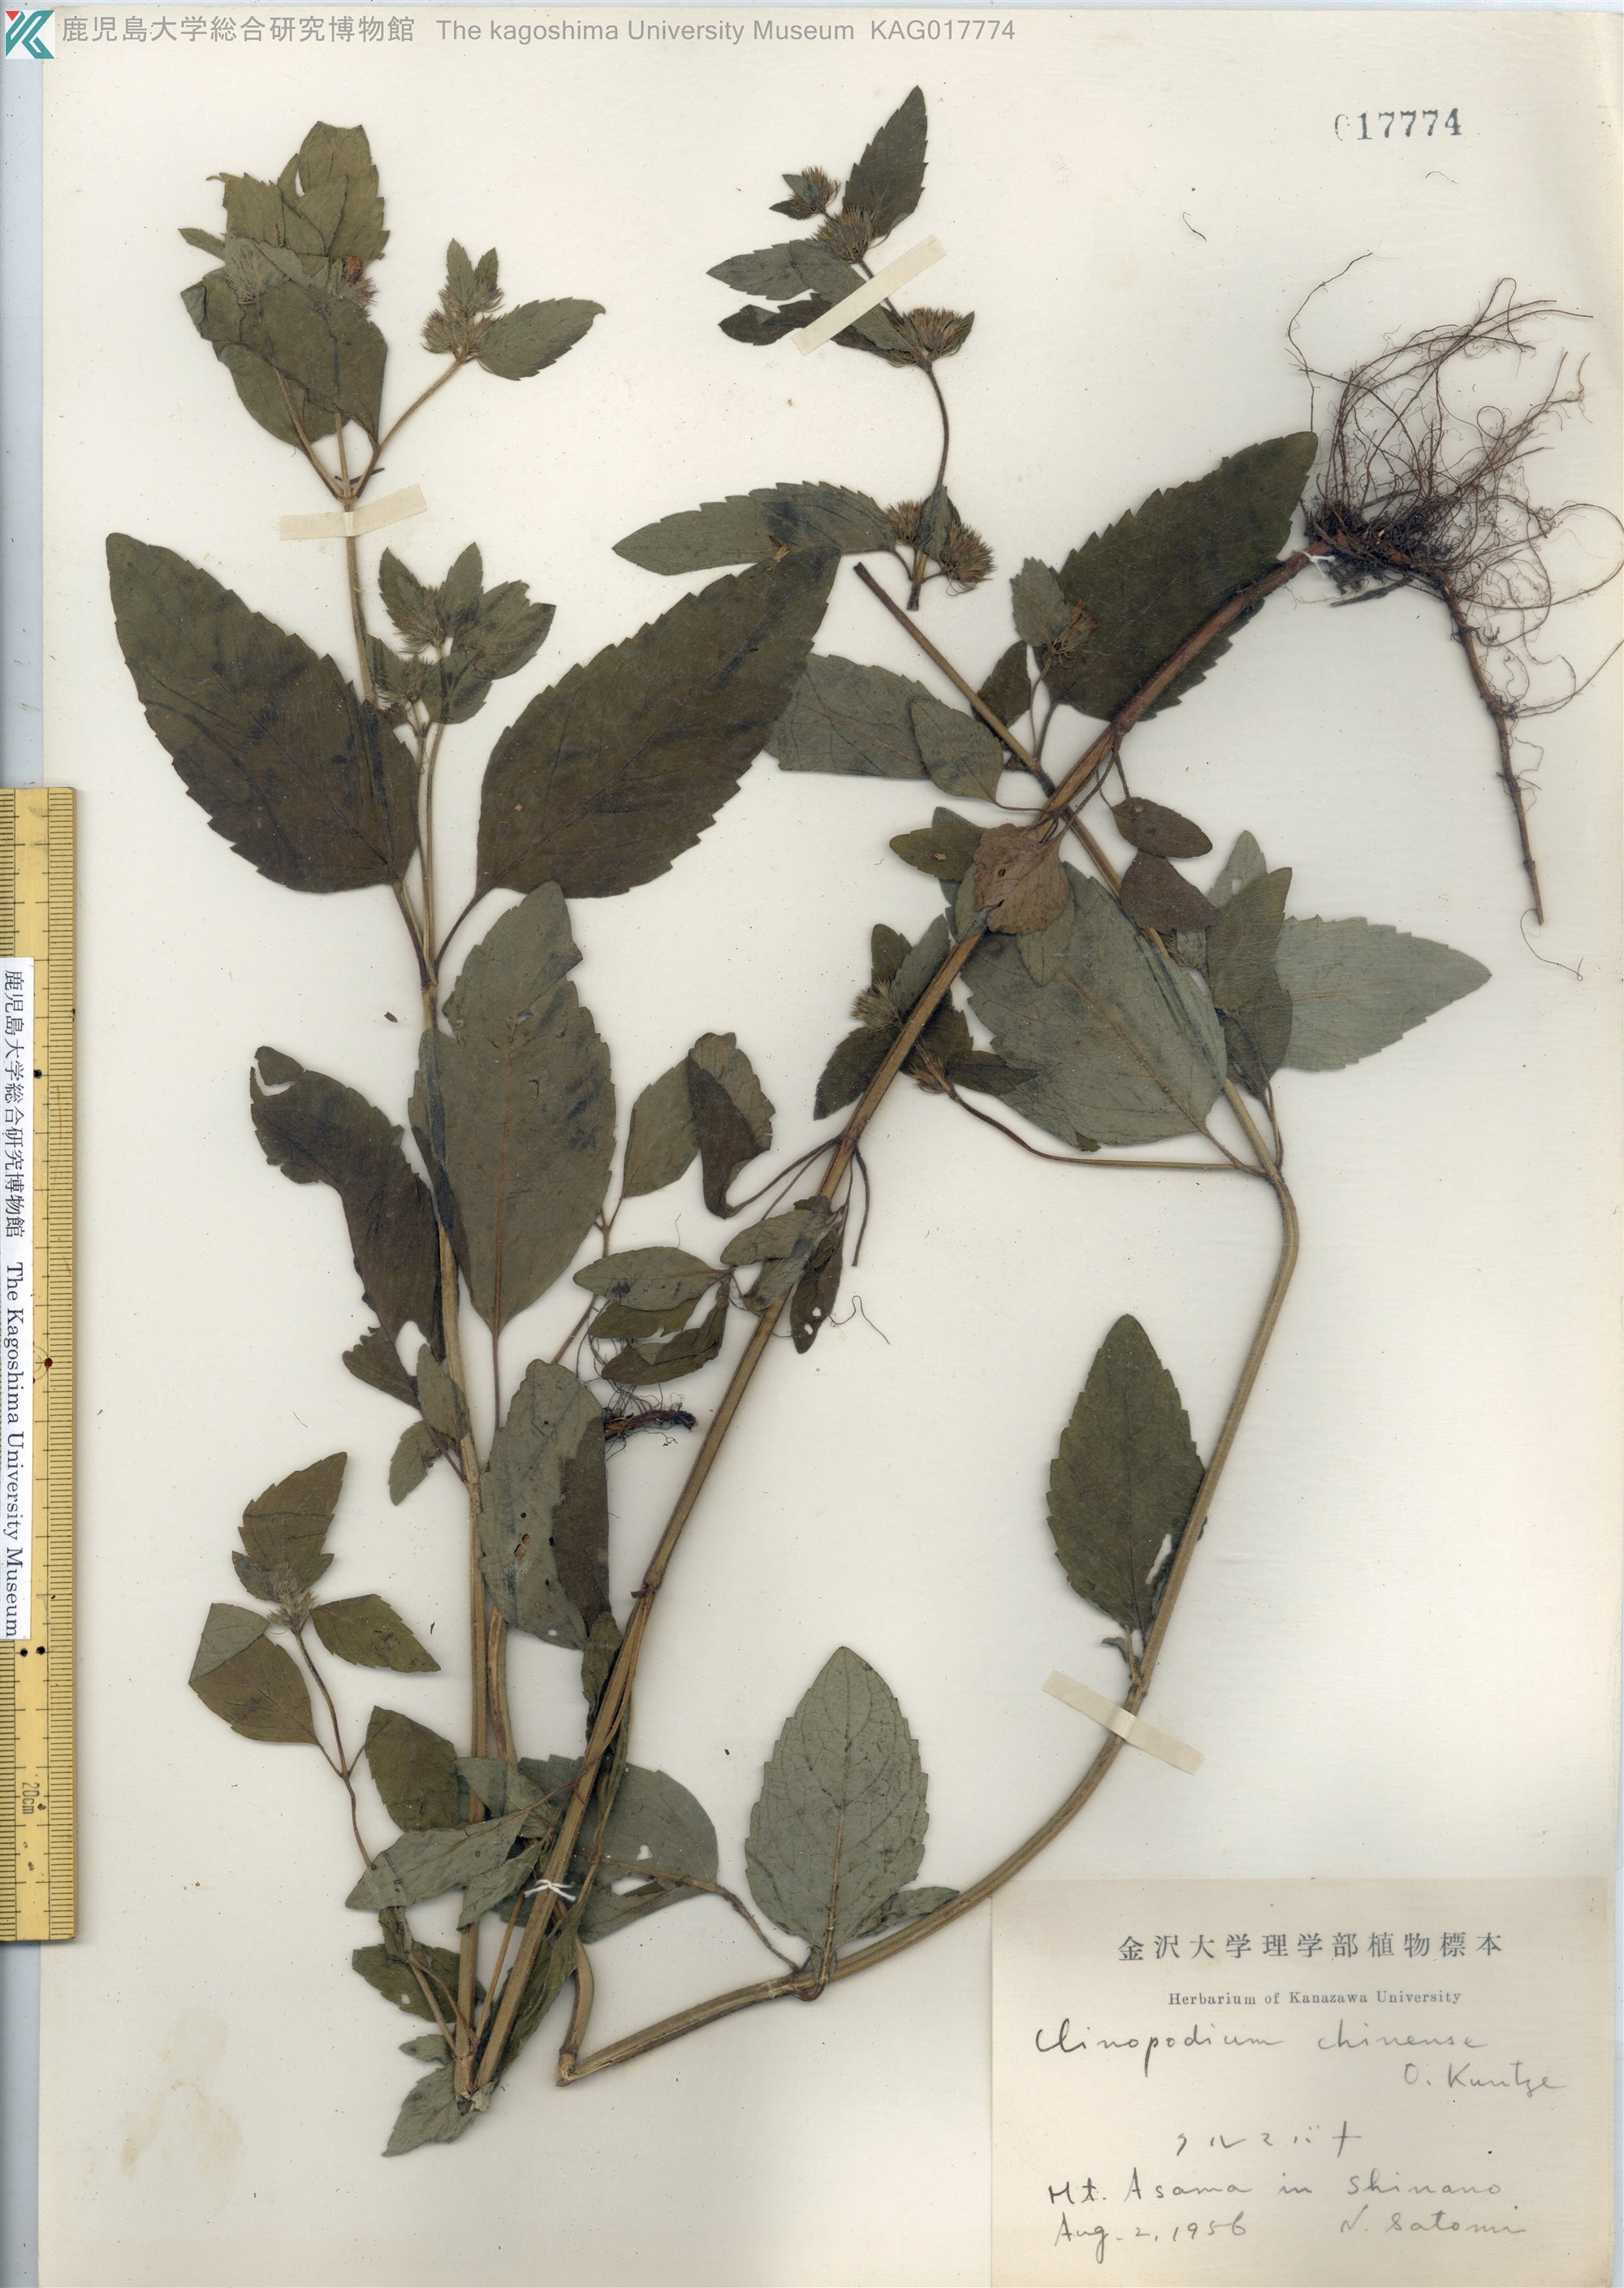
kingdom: Plantae
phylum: Tracheophyta
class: Magnoliopsida
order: Lamiales
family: Lamiaceae
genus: Clinopodium
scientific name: Clinopodium chinense
